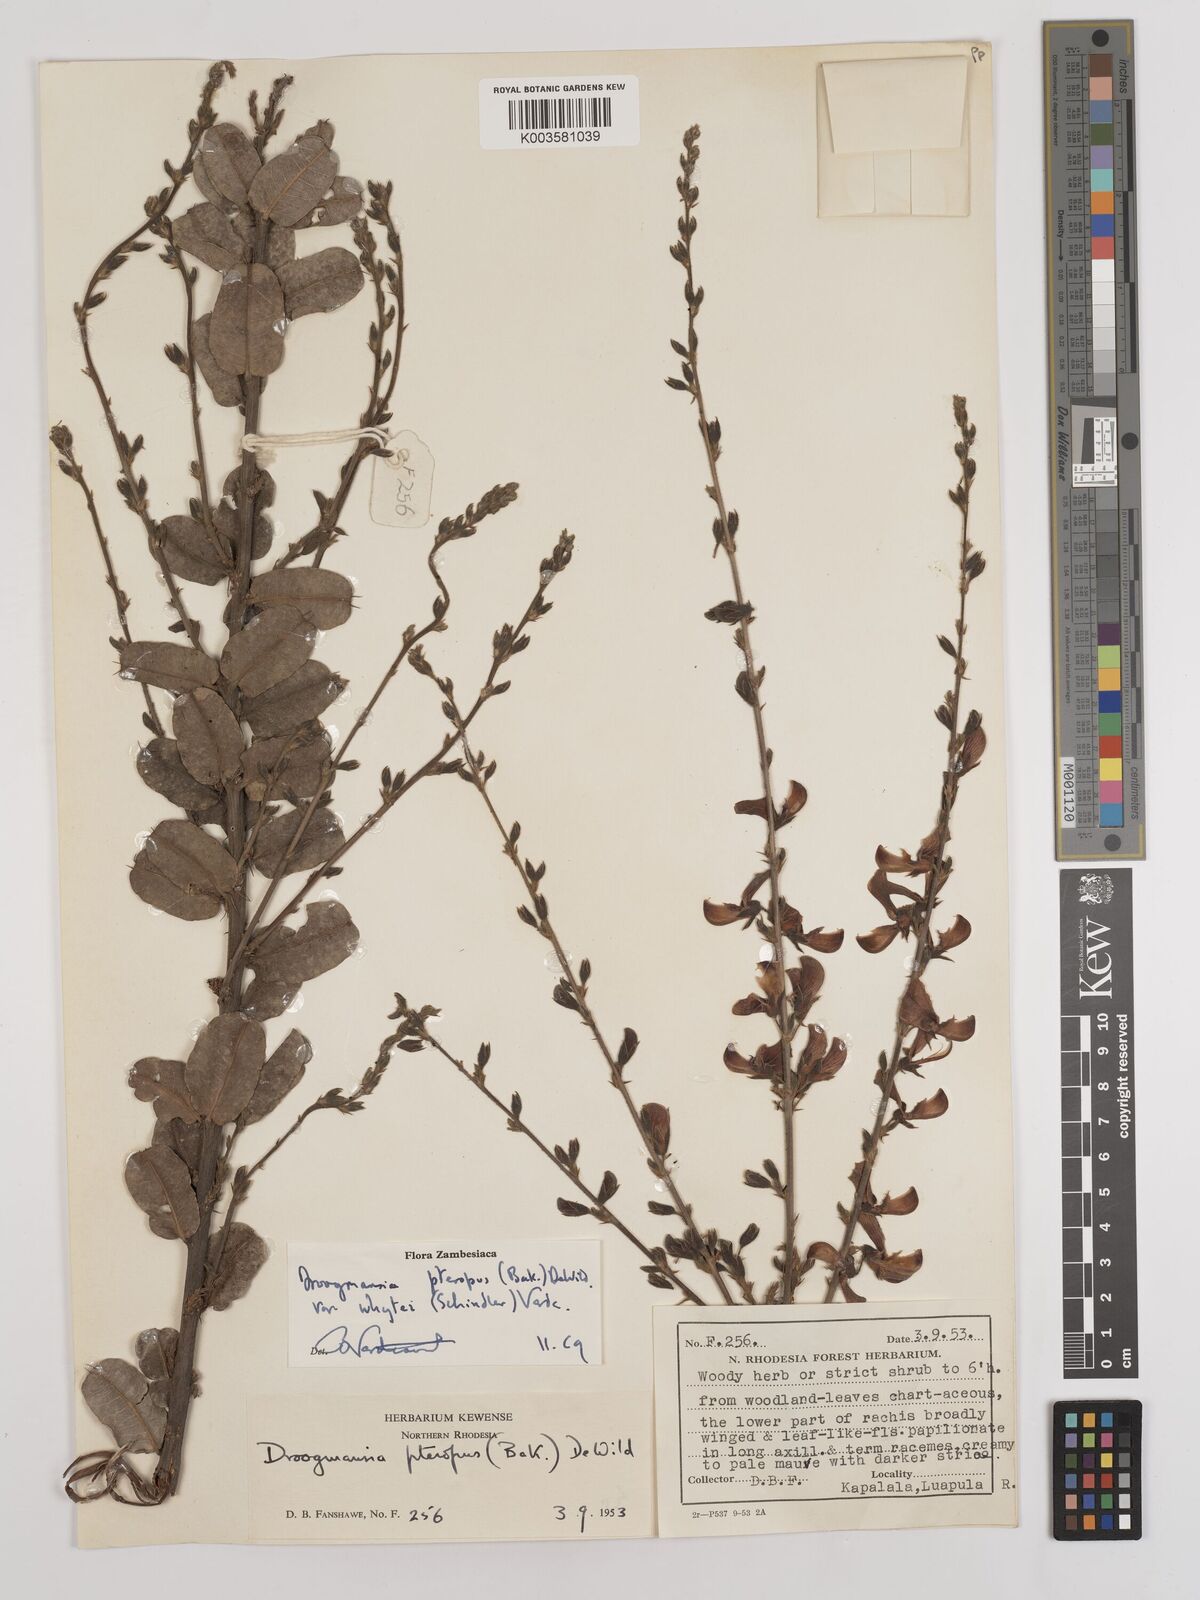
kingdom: Plantae
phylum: Tracheophyta
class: Magnoliopsida
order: Fabales
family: Fabaceae
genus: Droogmansia
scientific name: Droogmansia pteropus
